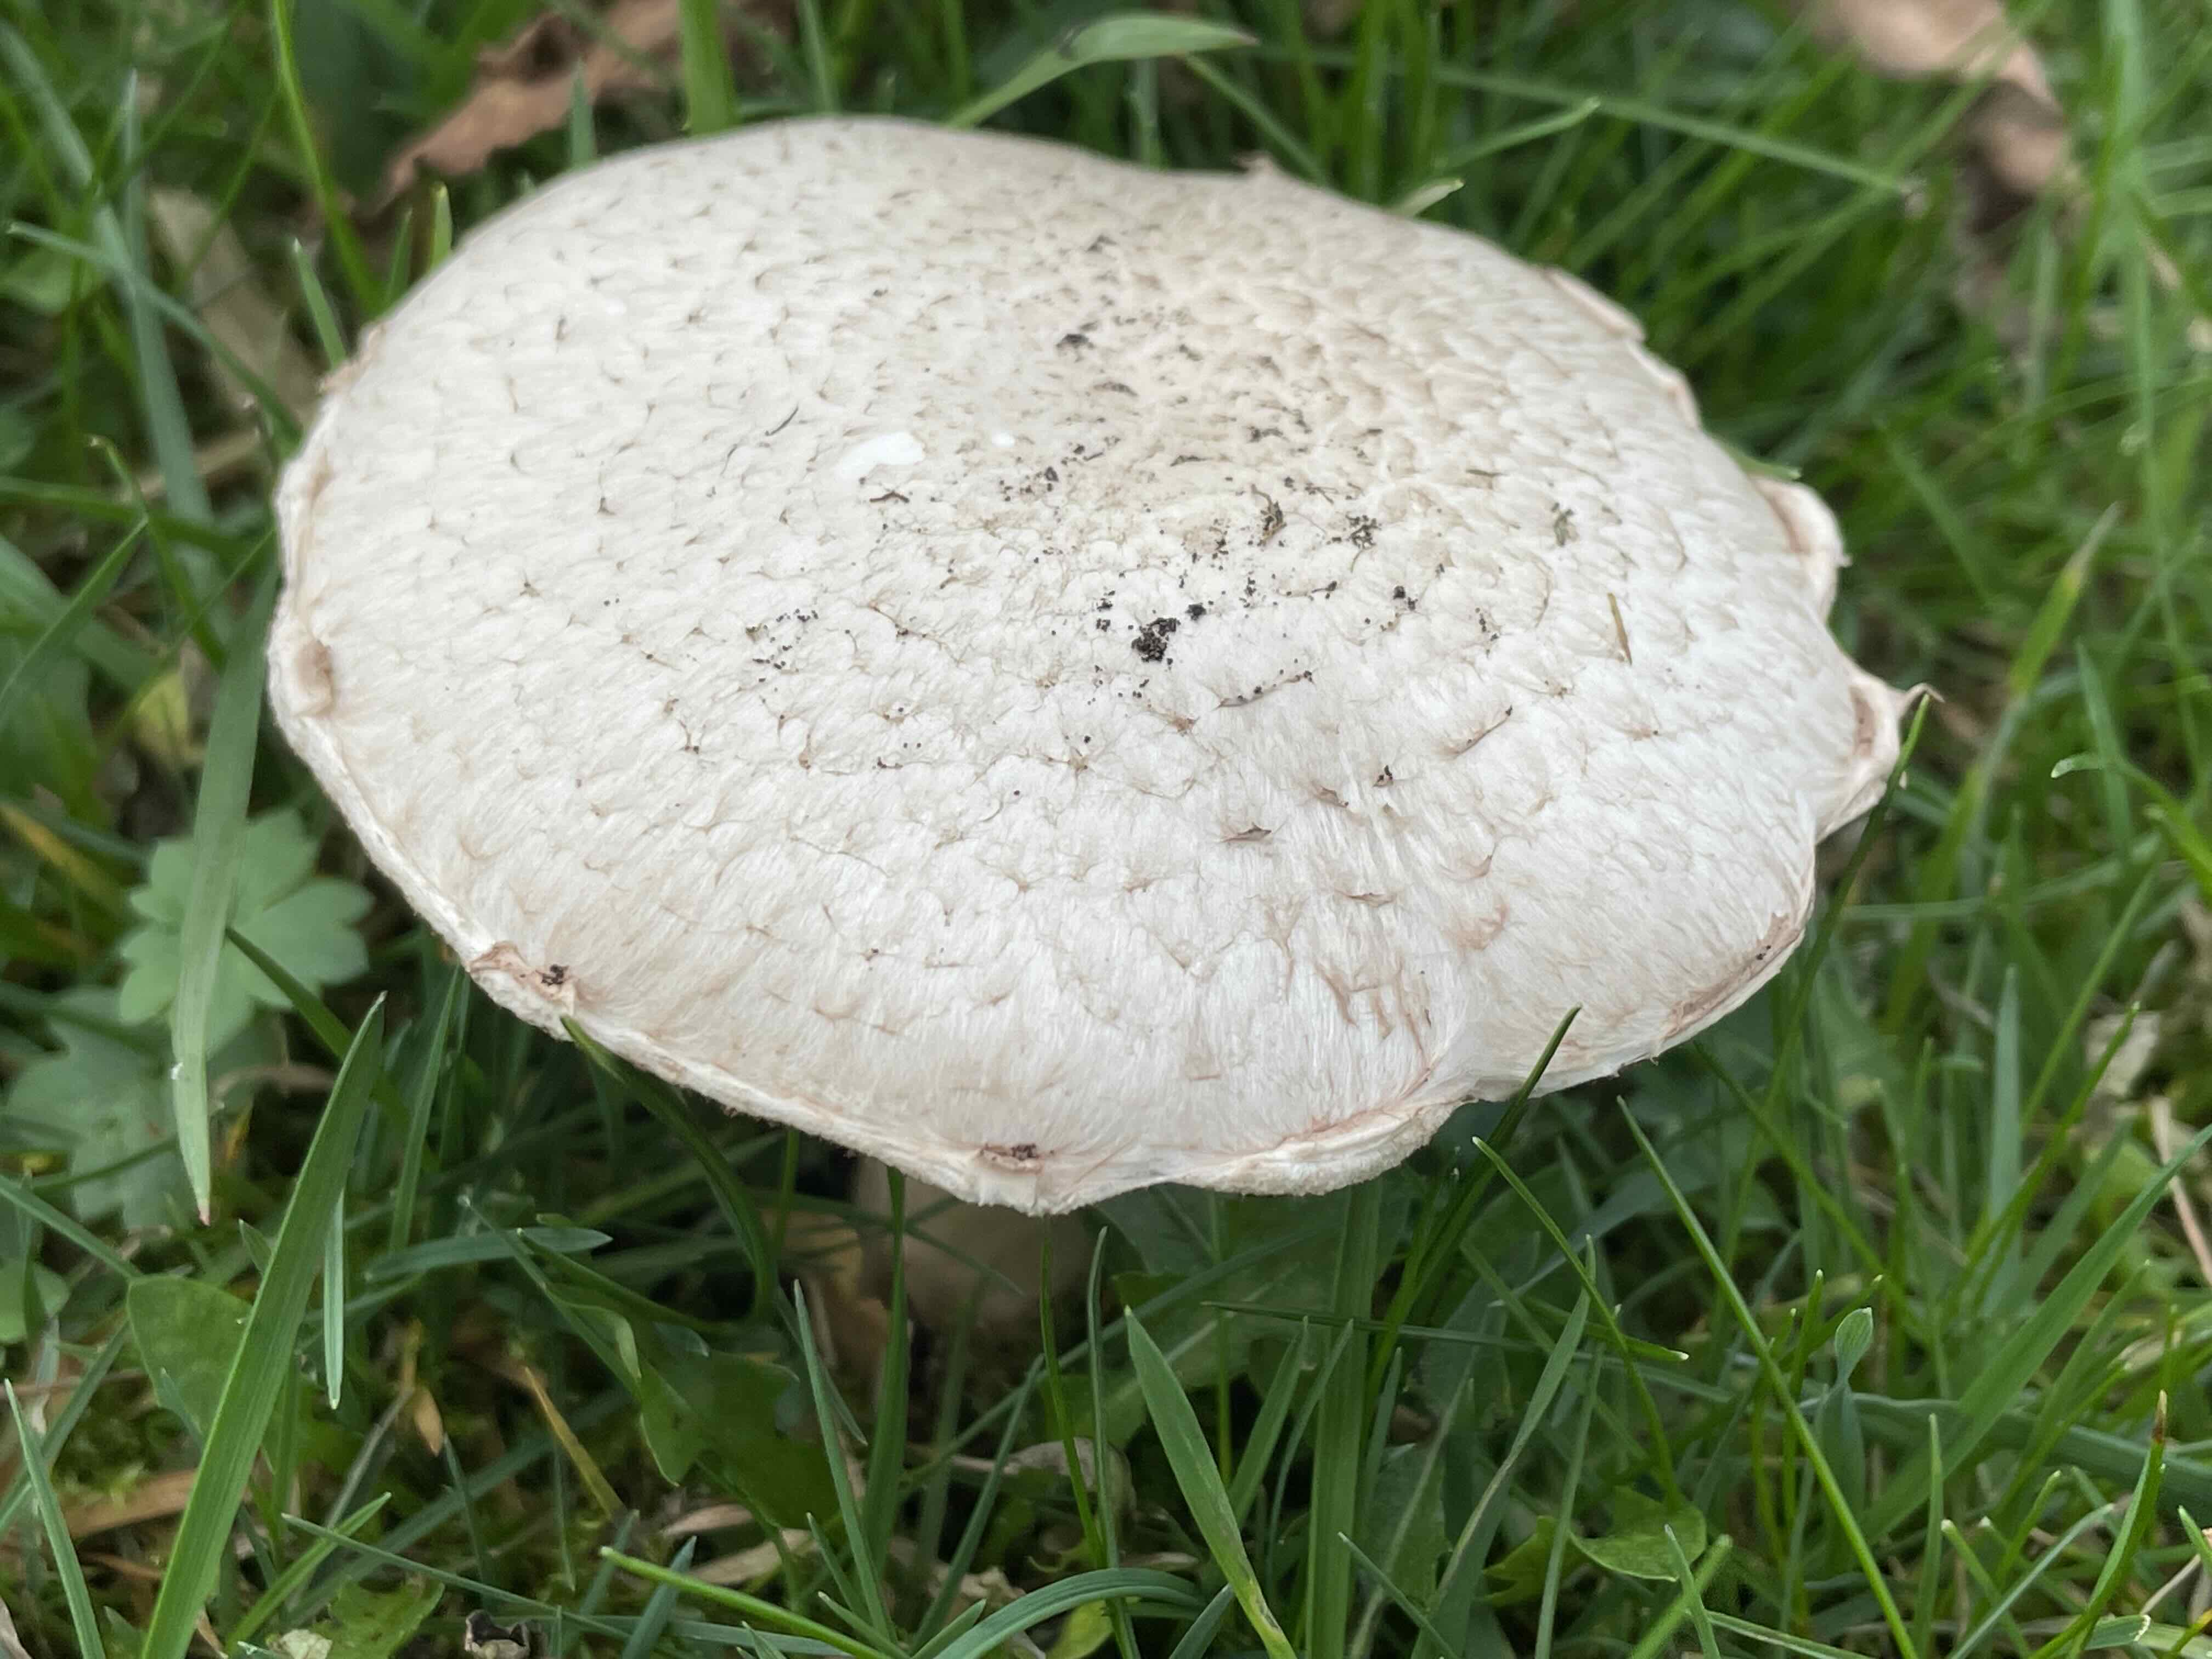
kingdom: Fungi
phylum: Basidiomycota
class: Agaricomycetes
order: Agaricales
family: Agaricaceae
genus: Agaricus
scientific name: Agaricus campestris
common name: mark-champignon
